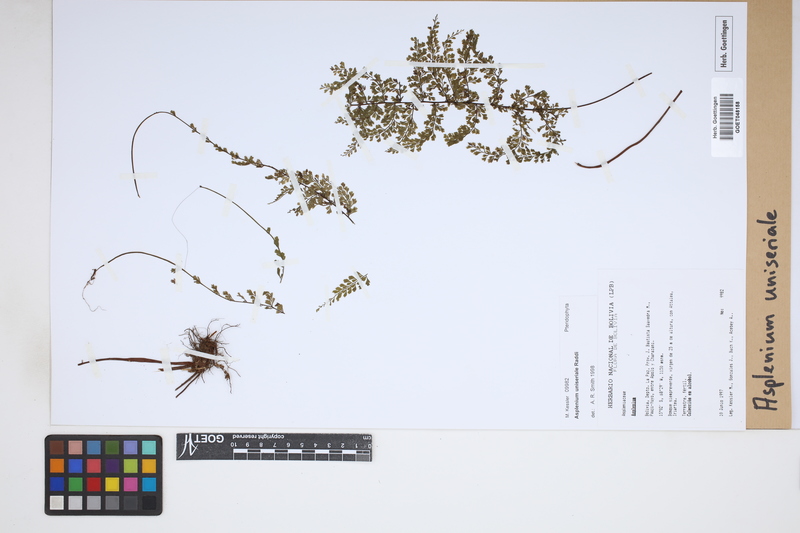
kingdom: Plantae
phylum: Tracheophyta
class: Polypodiopsida
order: Polypodiales
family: Aspleniaceae
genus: Asplenium
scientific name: Asplenium uniseriale
